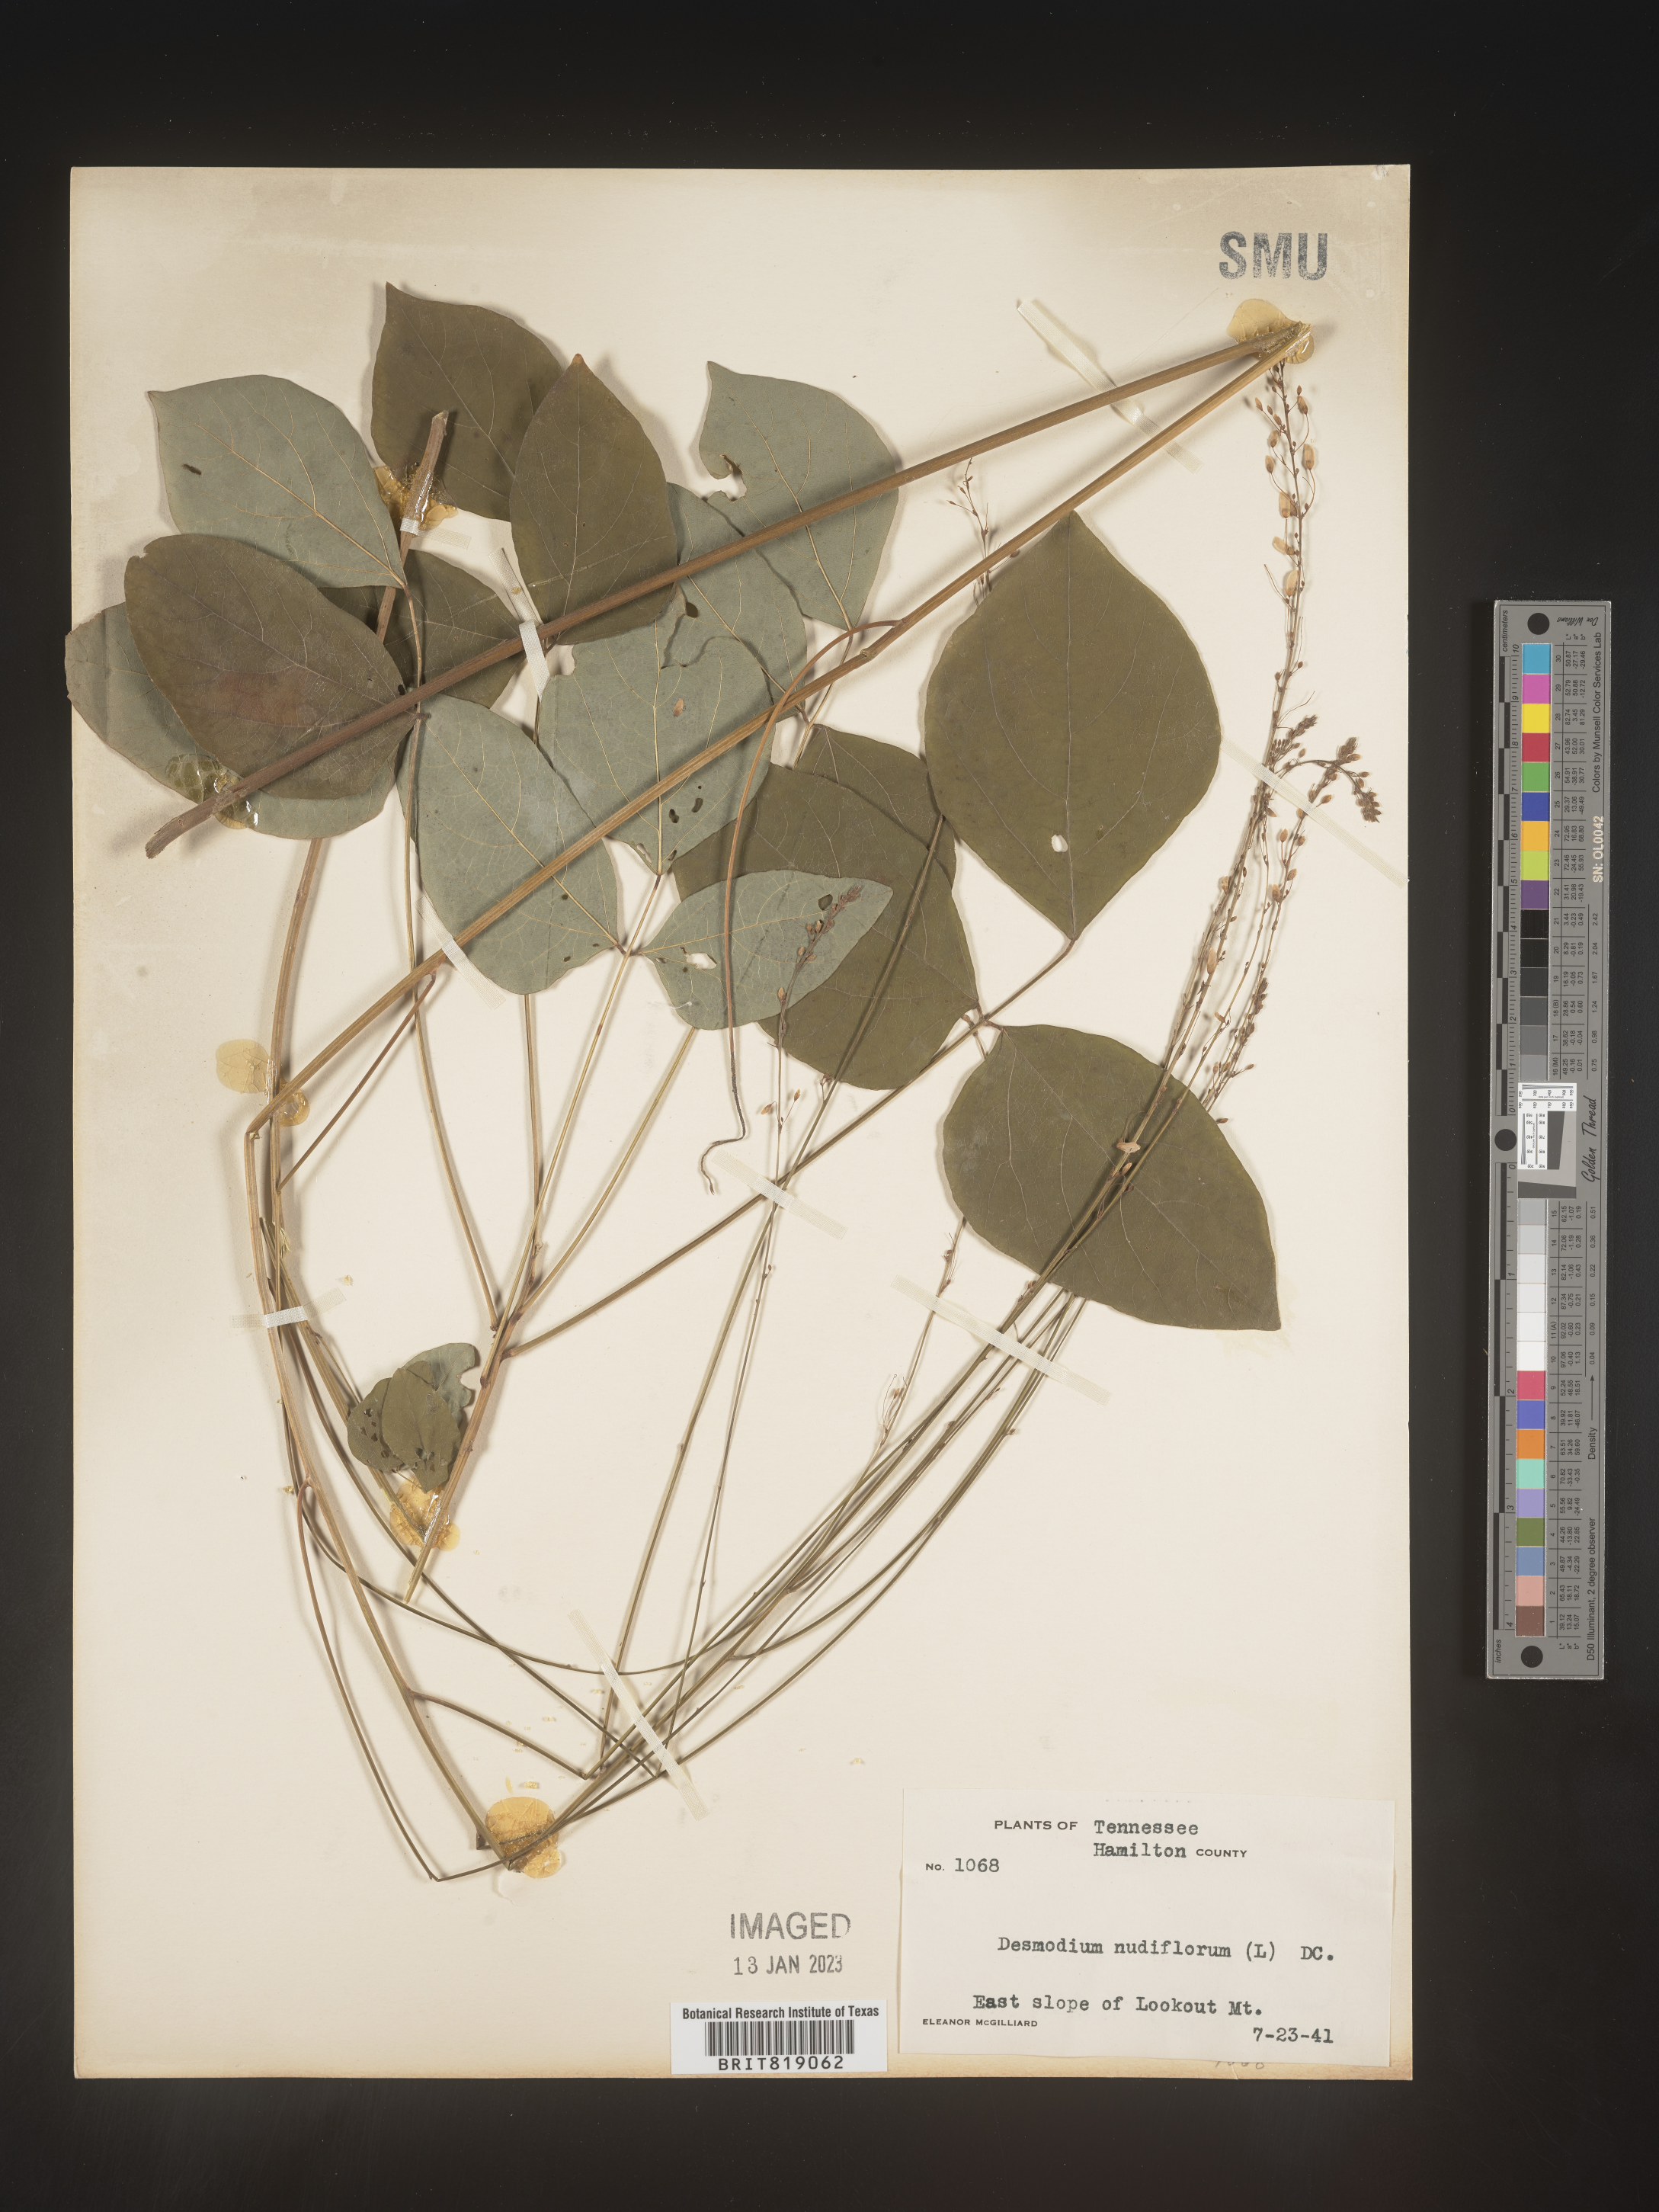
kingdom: Plantae
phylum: Tracheophyta
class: Magnoliopsida
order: Fabales
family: Fabaceae
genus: Hylodesmum
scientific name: Hylodesmum nudiflorum
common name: Bare-stemmed tick-trefoil
